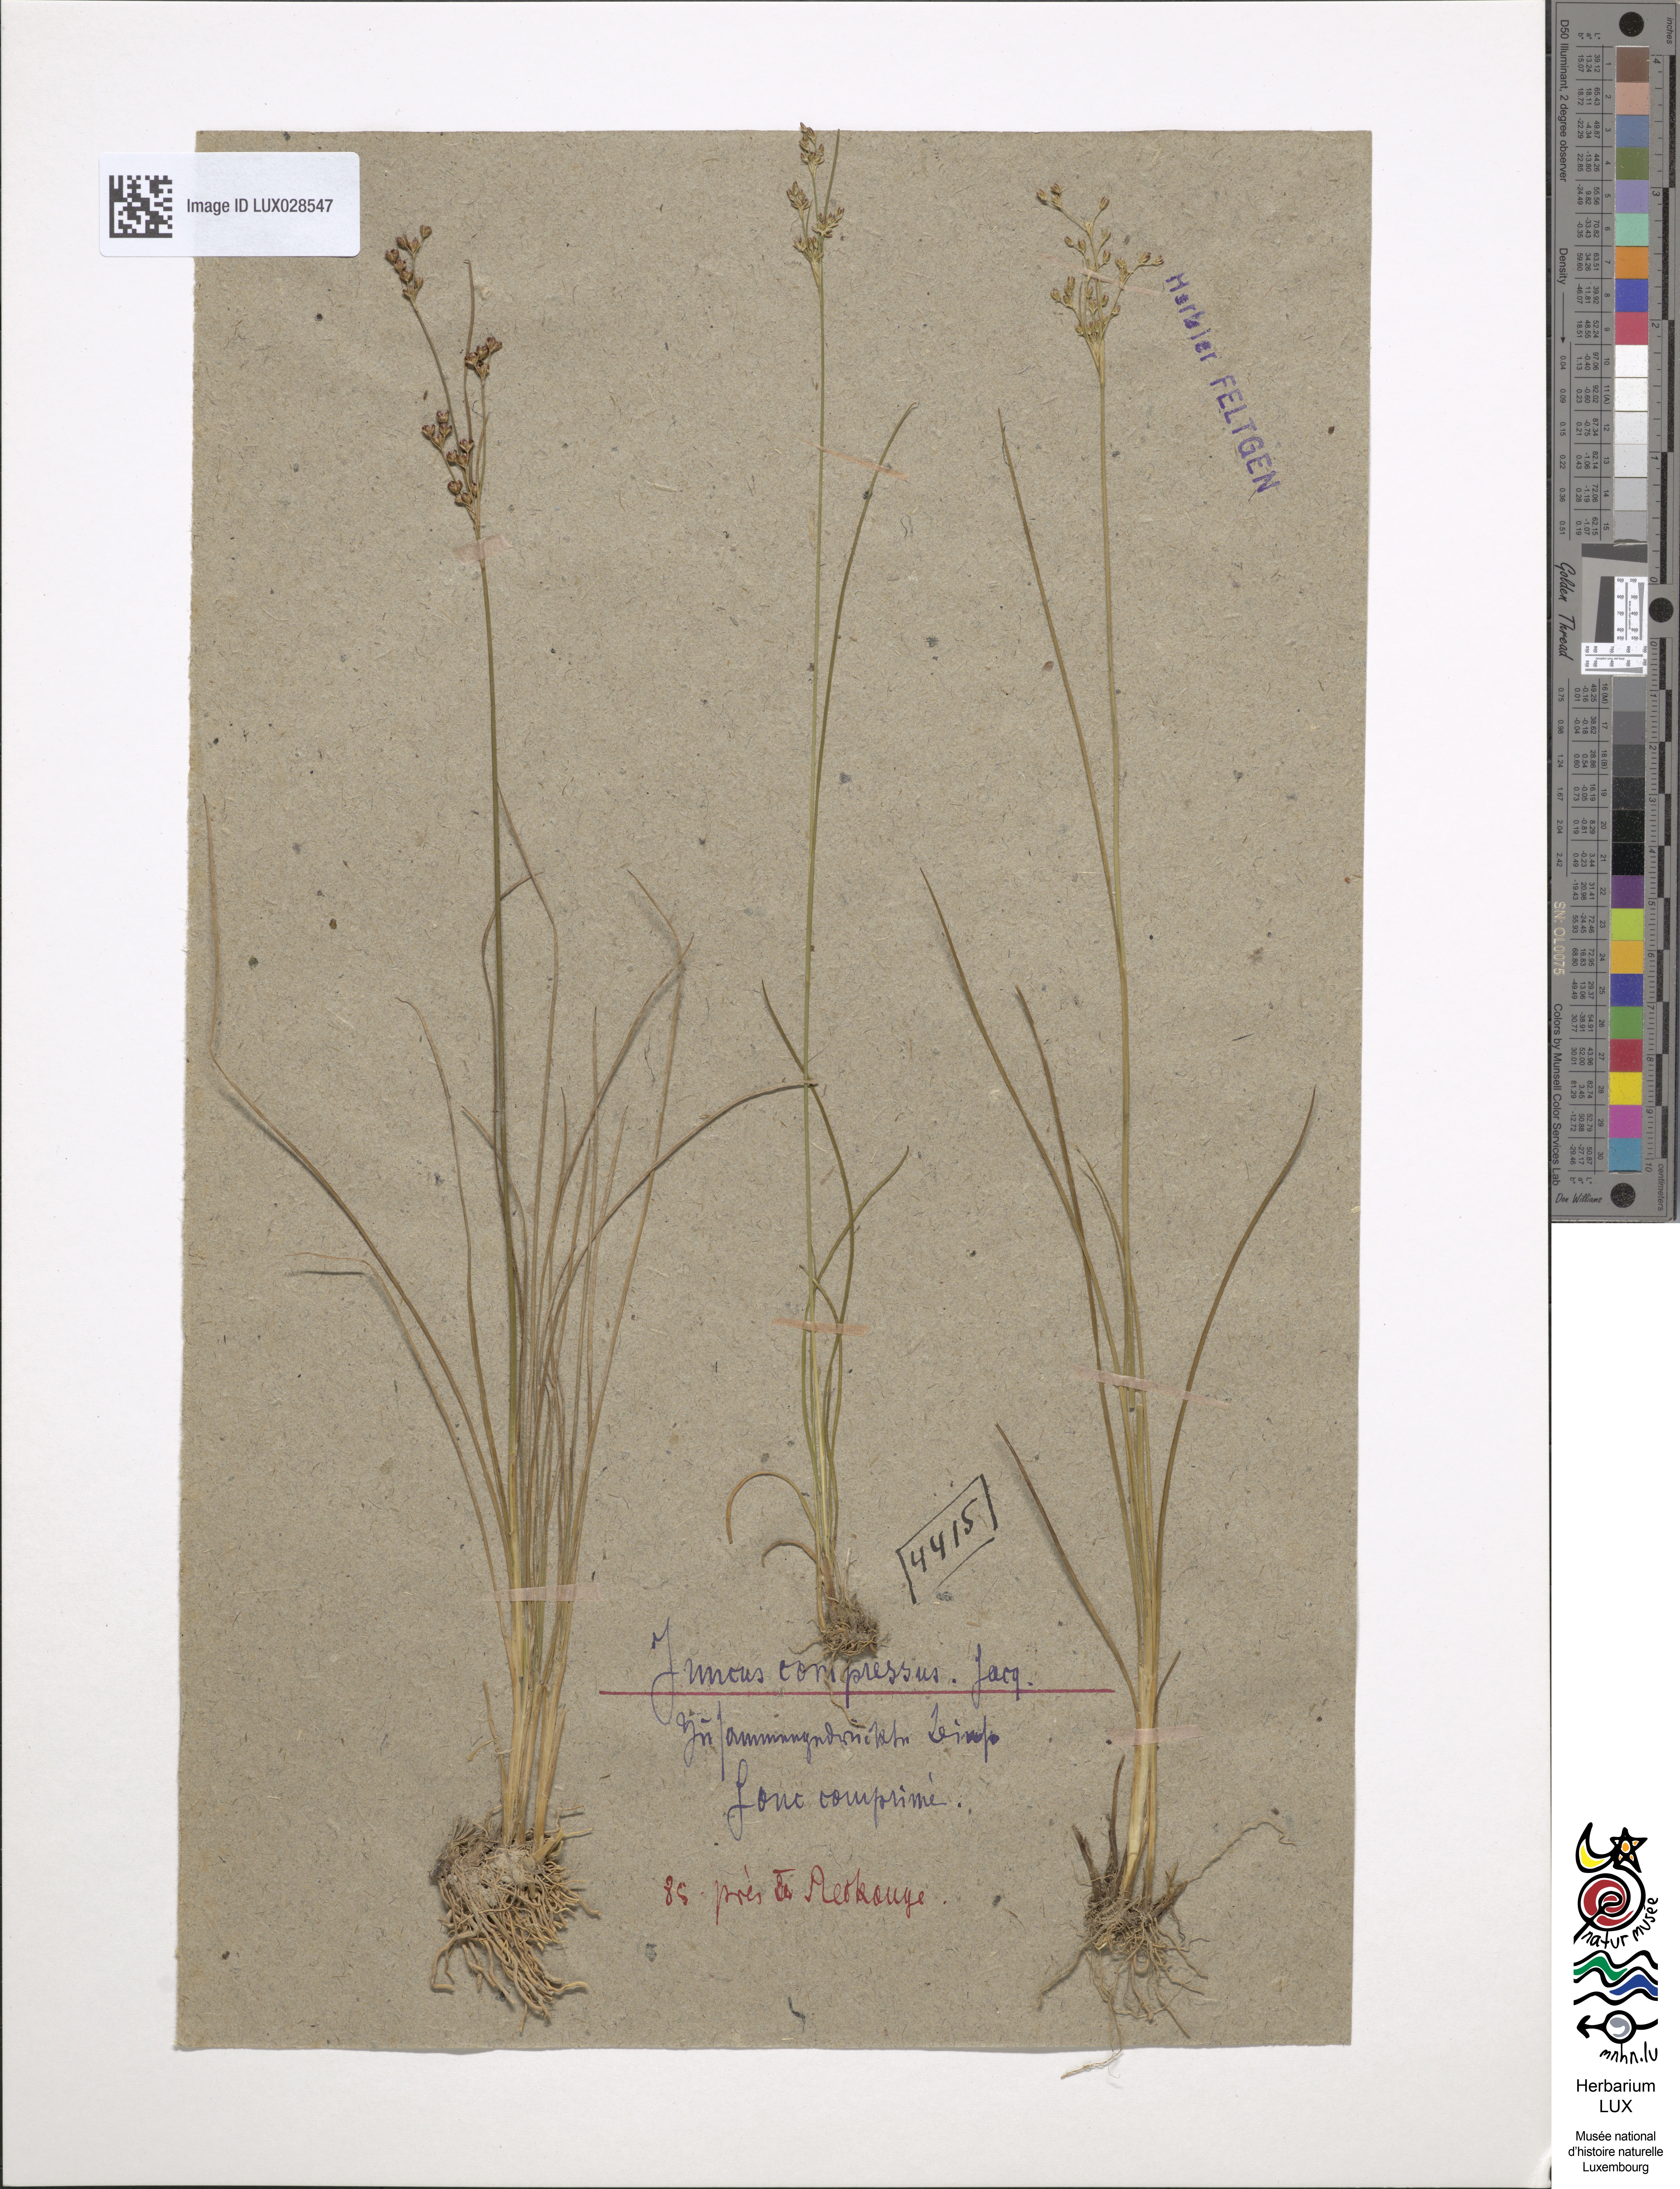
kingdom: Plantae
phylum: Tracheophyta
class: Liliopsida
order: Poales
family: Juncaceae
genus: Juncus
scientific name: Juncus compressus
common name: Round-fruited rush
